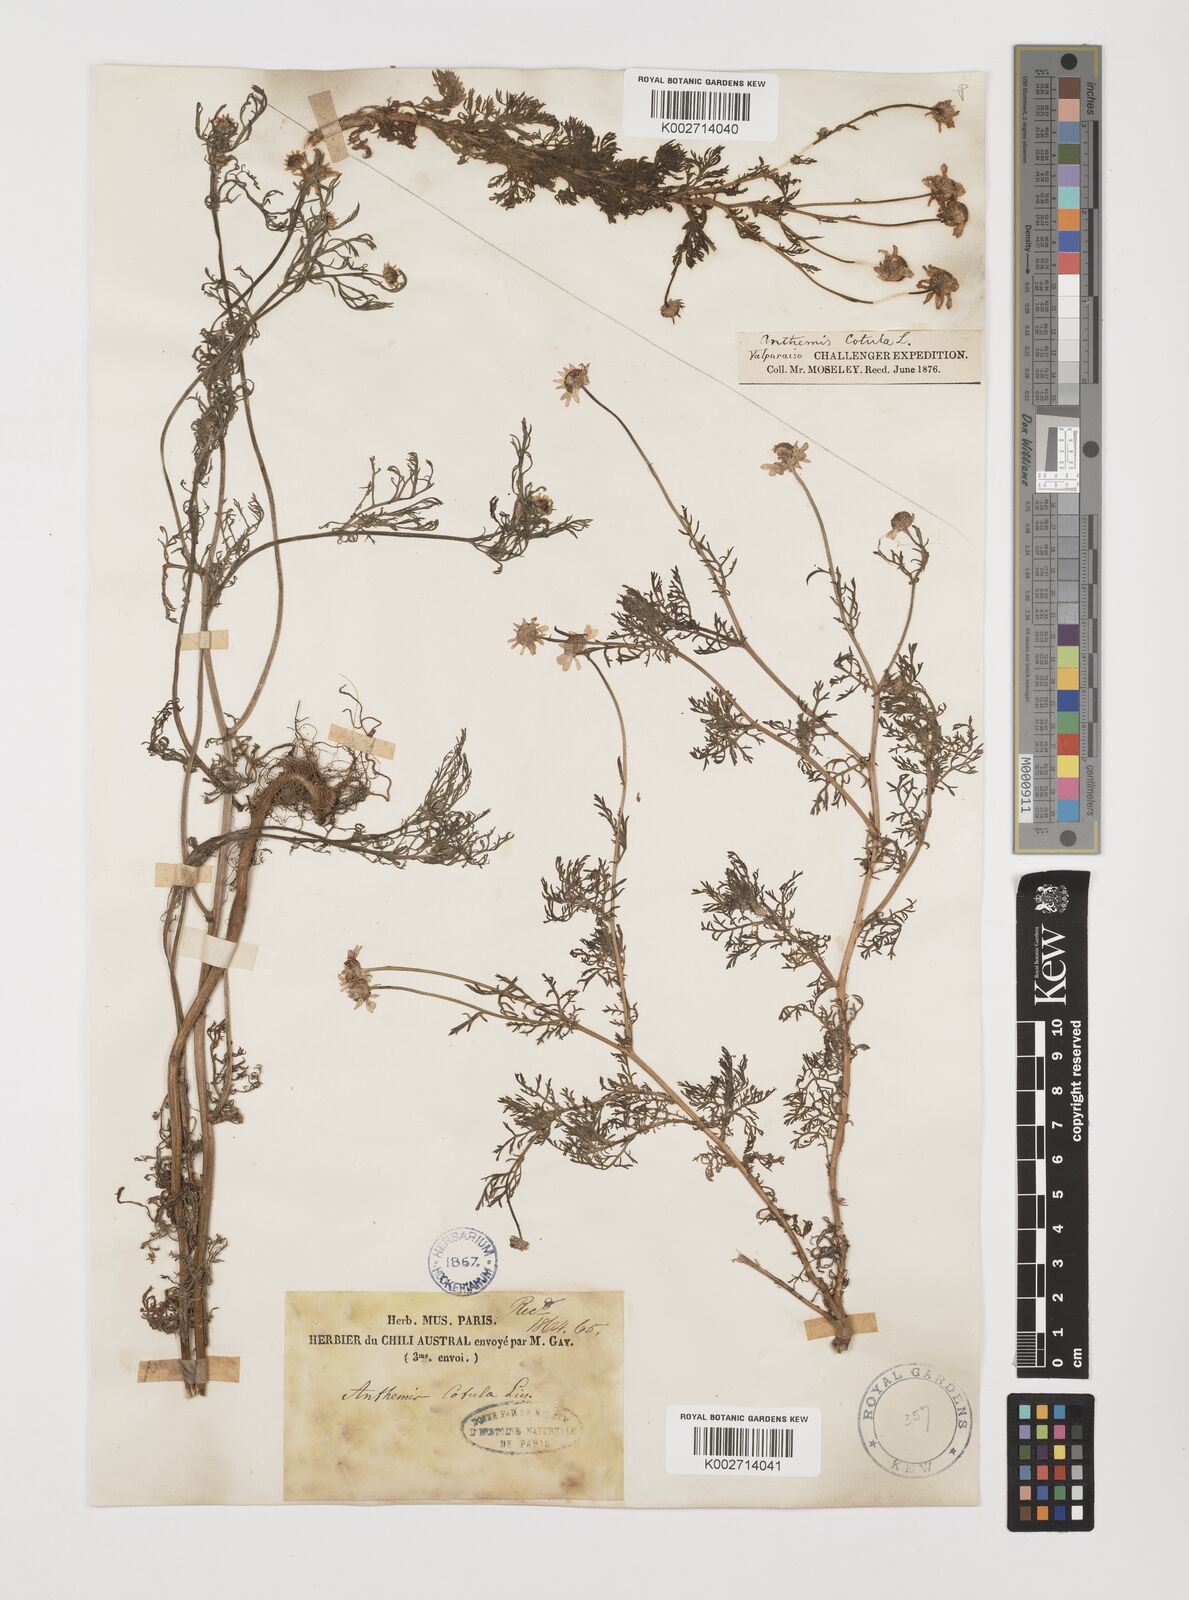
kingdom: Plantae
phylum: Tracheophyta
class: Magnoliopsida
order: Asterales
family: Asteraceae
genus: Anthemis
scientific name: Anthemis cotula
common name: Stinking chamomile
